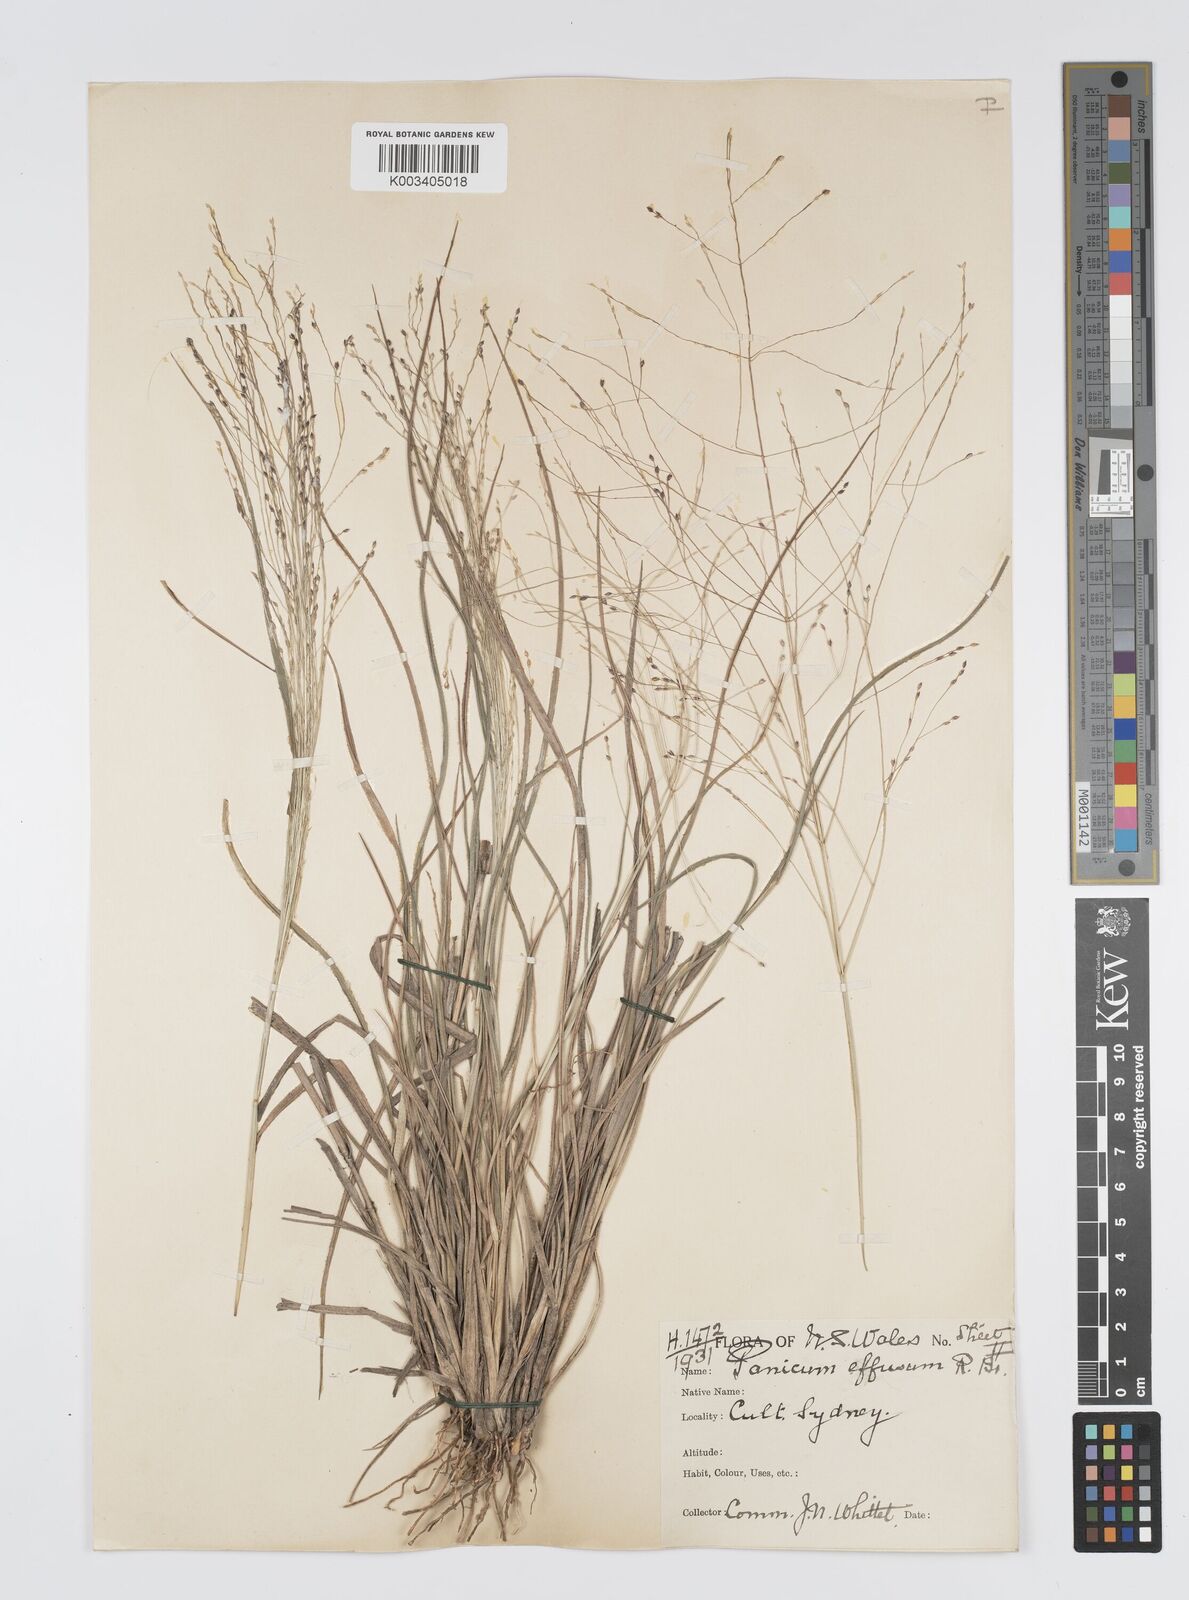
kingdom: Plantae
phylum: Tracheophyta
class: Liliopsida
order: Poales
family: Poaceae
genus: Panicum
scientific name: Panicum effusum
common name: Hairy panic grass
